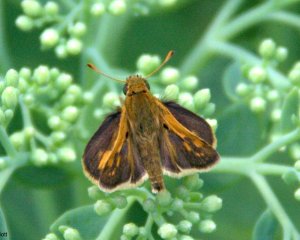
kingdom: Animalia
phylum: Arthropoda
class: Insecta
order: Lepidoptera
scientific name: Lepidoptera
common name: Butterflies
